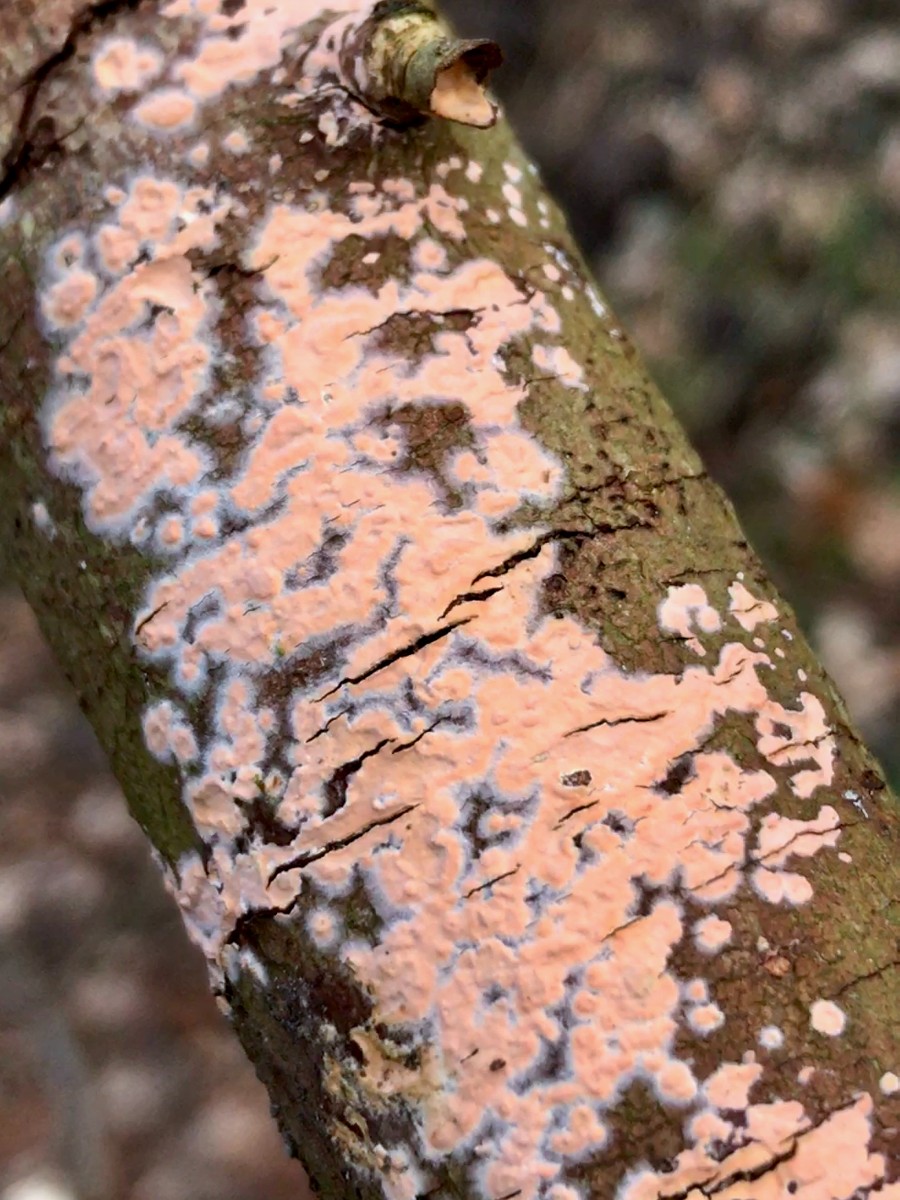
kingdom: Fungi
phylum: Basidiomycota
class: Agaricomycetes
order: Russulales
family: Peniophoraceae
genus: Peniophora
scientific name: Peniophora incarnata
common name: laksefarvet voksskind
